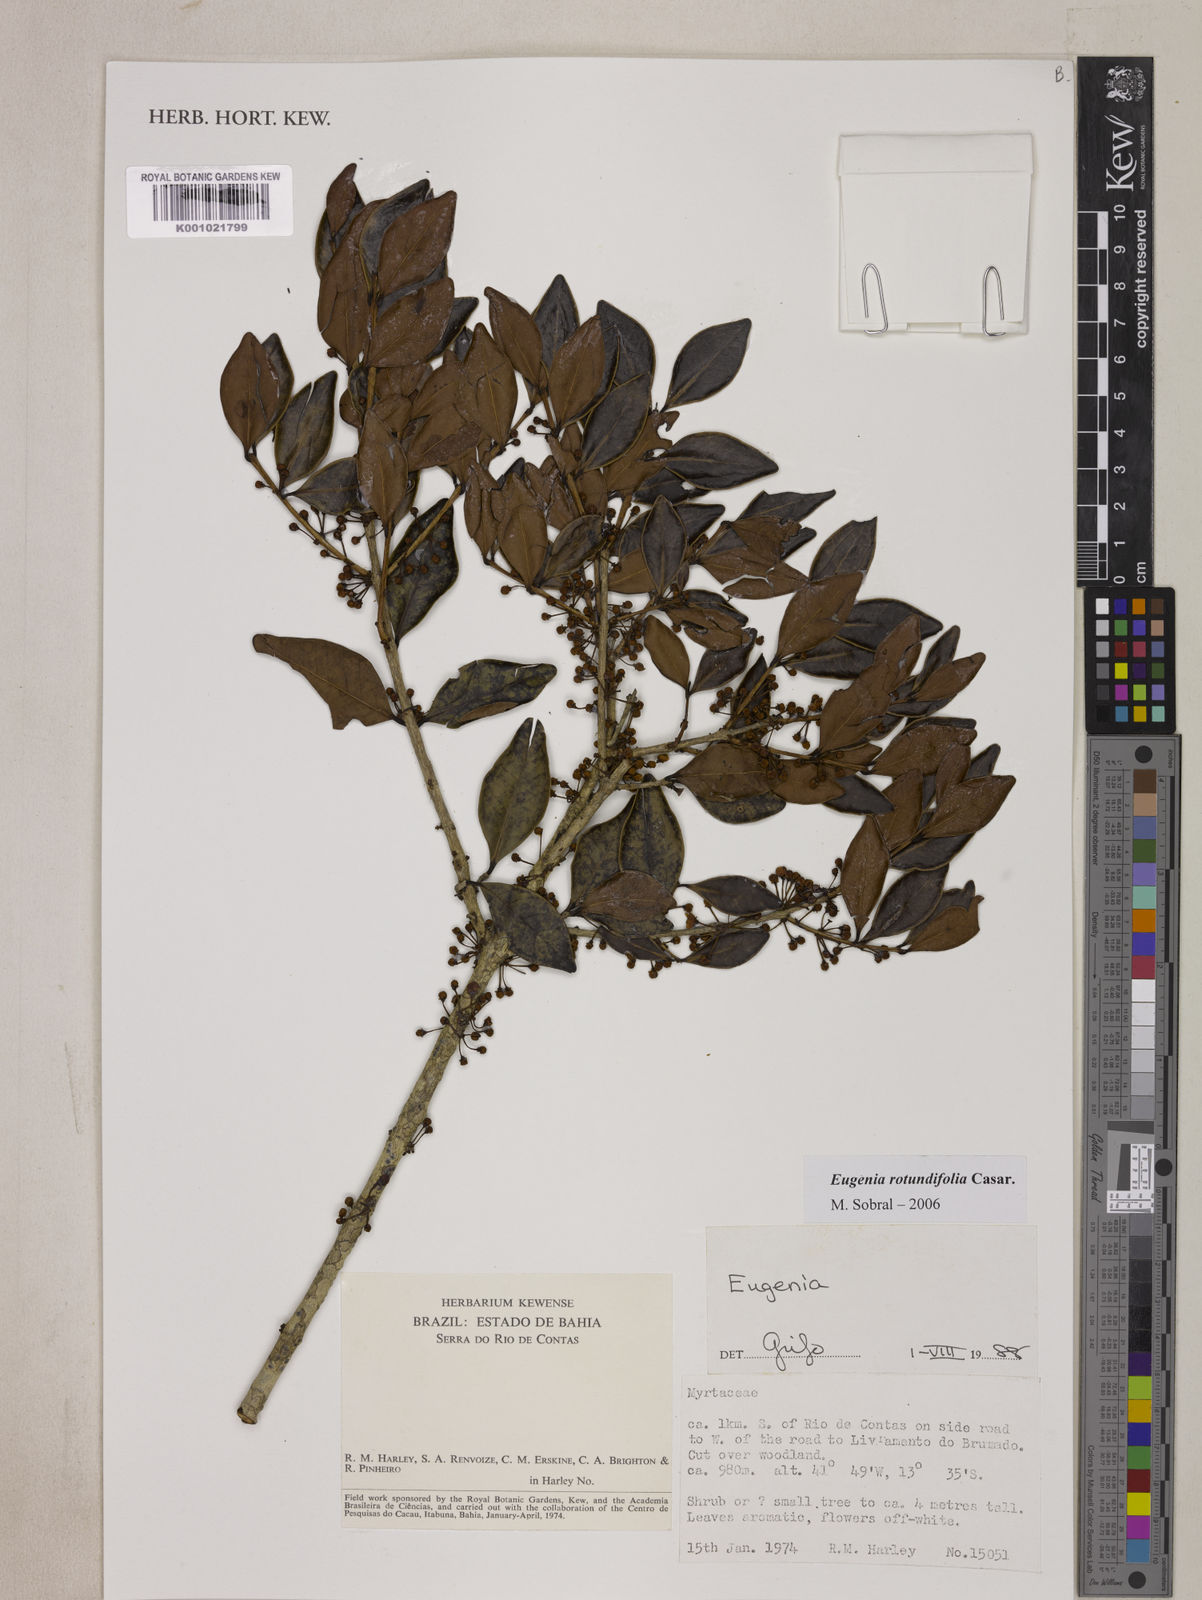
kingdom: Plantae
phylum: Tracheophyta
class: Magnoliopsida
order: Myrtales
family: Myrtaceae
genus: Eugenia
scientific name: Eugenia casarettoana
